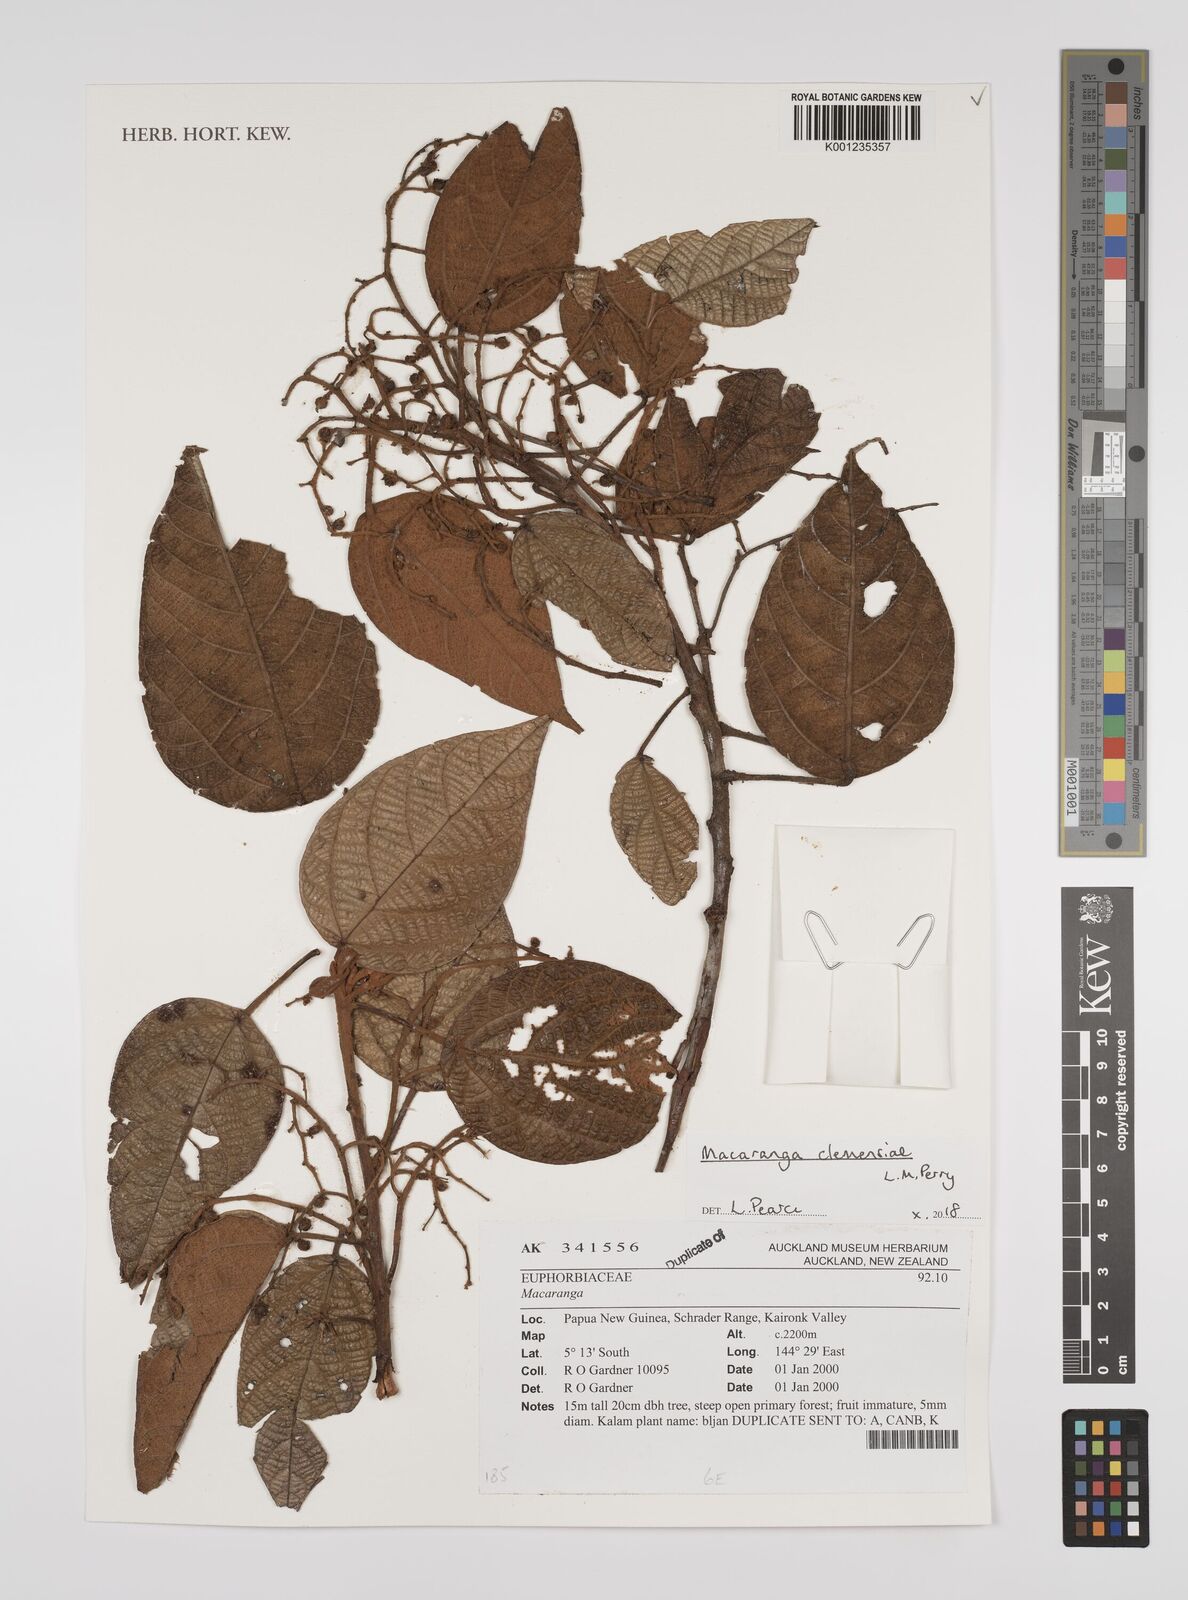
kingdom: Plantae
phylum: Tracheophyta
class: Magnoliopsida
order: Malpighiales
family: Euphorbiaceae
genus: Macaranga
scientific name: Macaranga clemensiae
